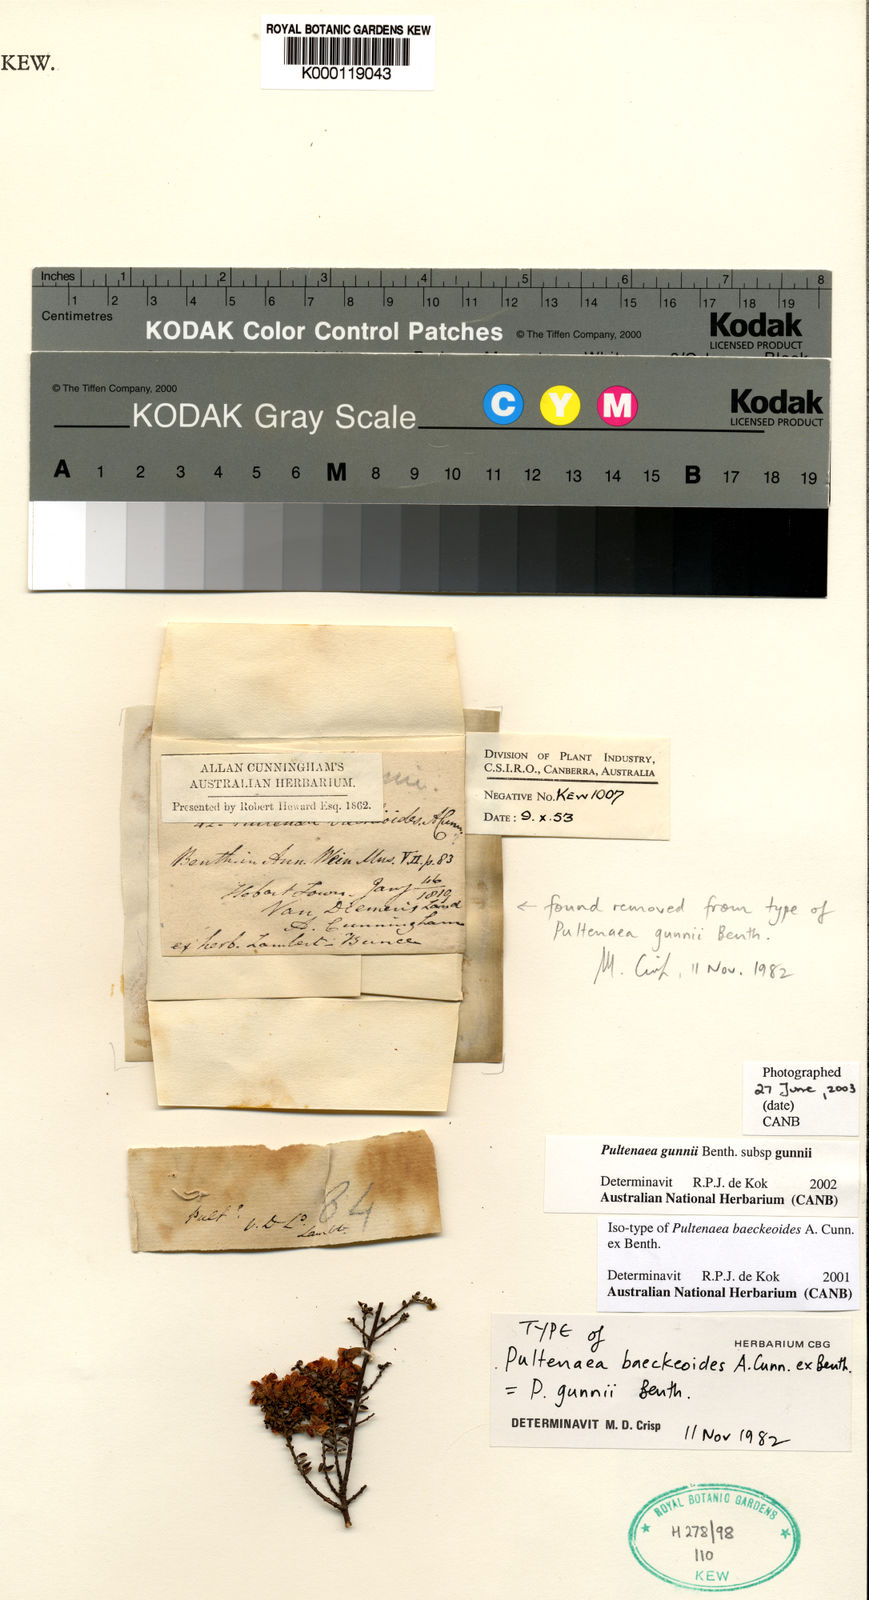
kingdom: Plantae
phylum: Tracheophyta
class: Magnoliopsida
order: Fabales
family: Fabaceae
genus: Pultenaea
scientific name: Pultenaea gunnii
